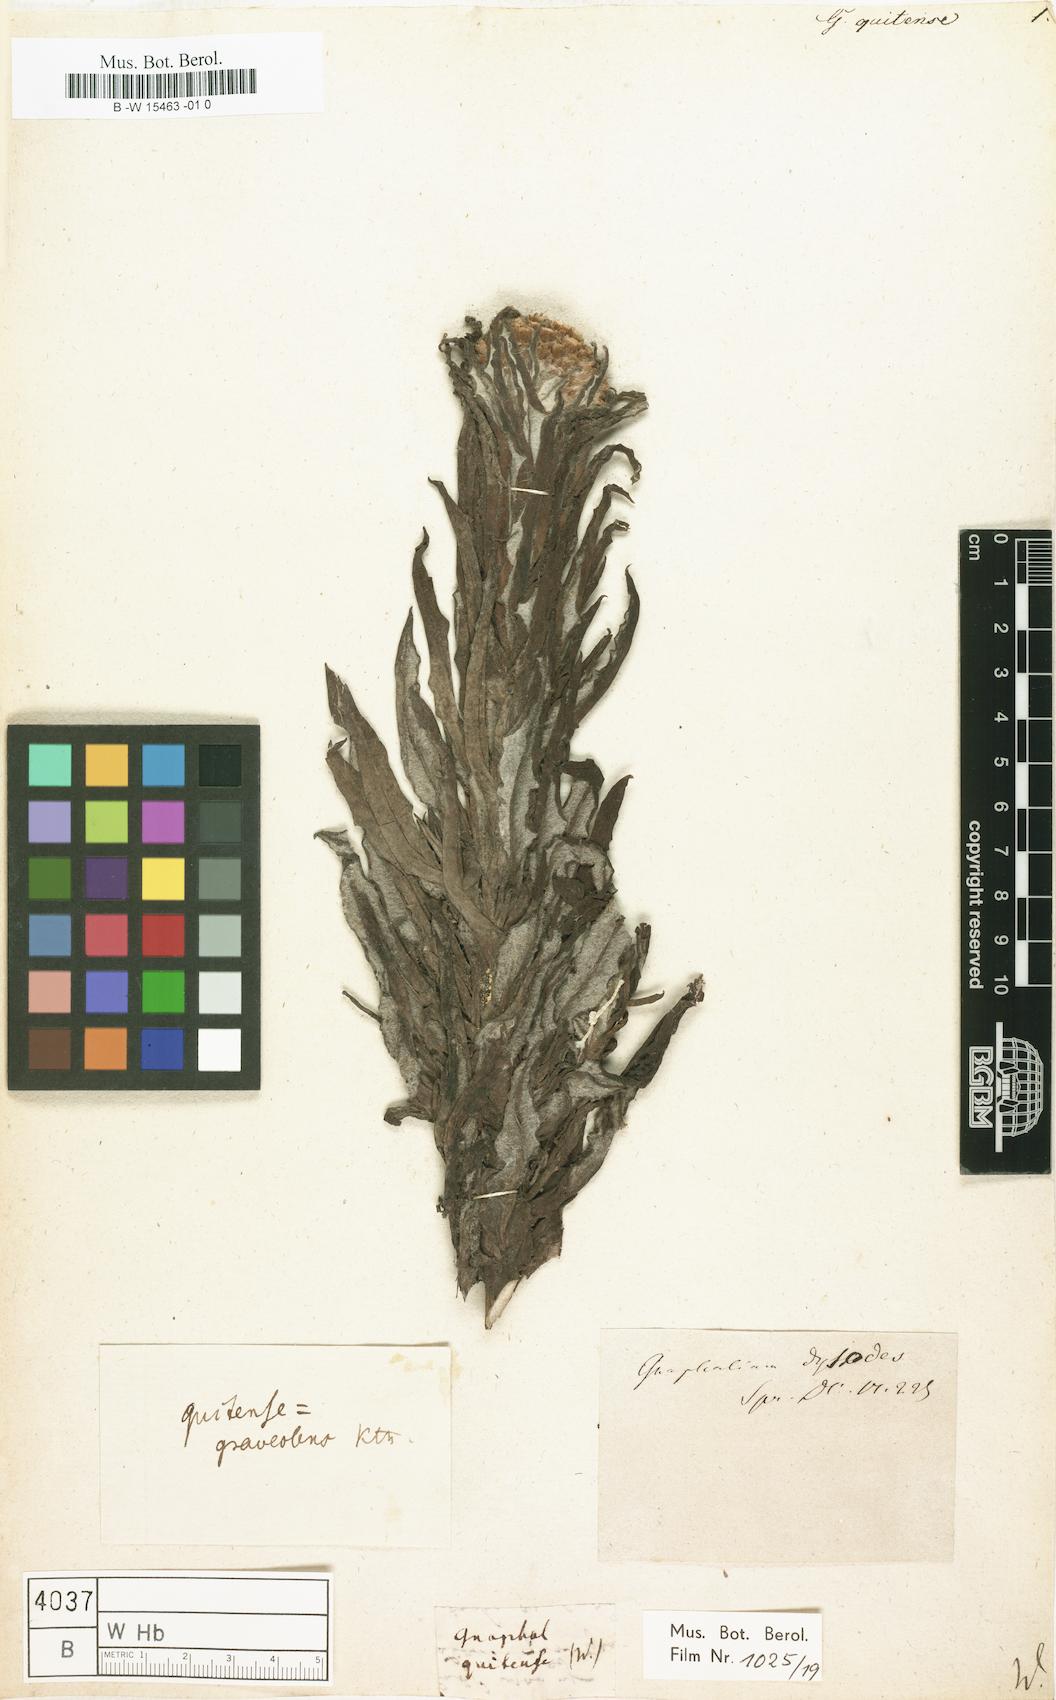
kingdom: Plantae
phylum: Tracheophyta
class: Magnoliopsida
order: Asterales
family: Asteraceae
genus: Gnaphalium
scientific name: Gnaphalium
